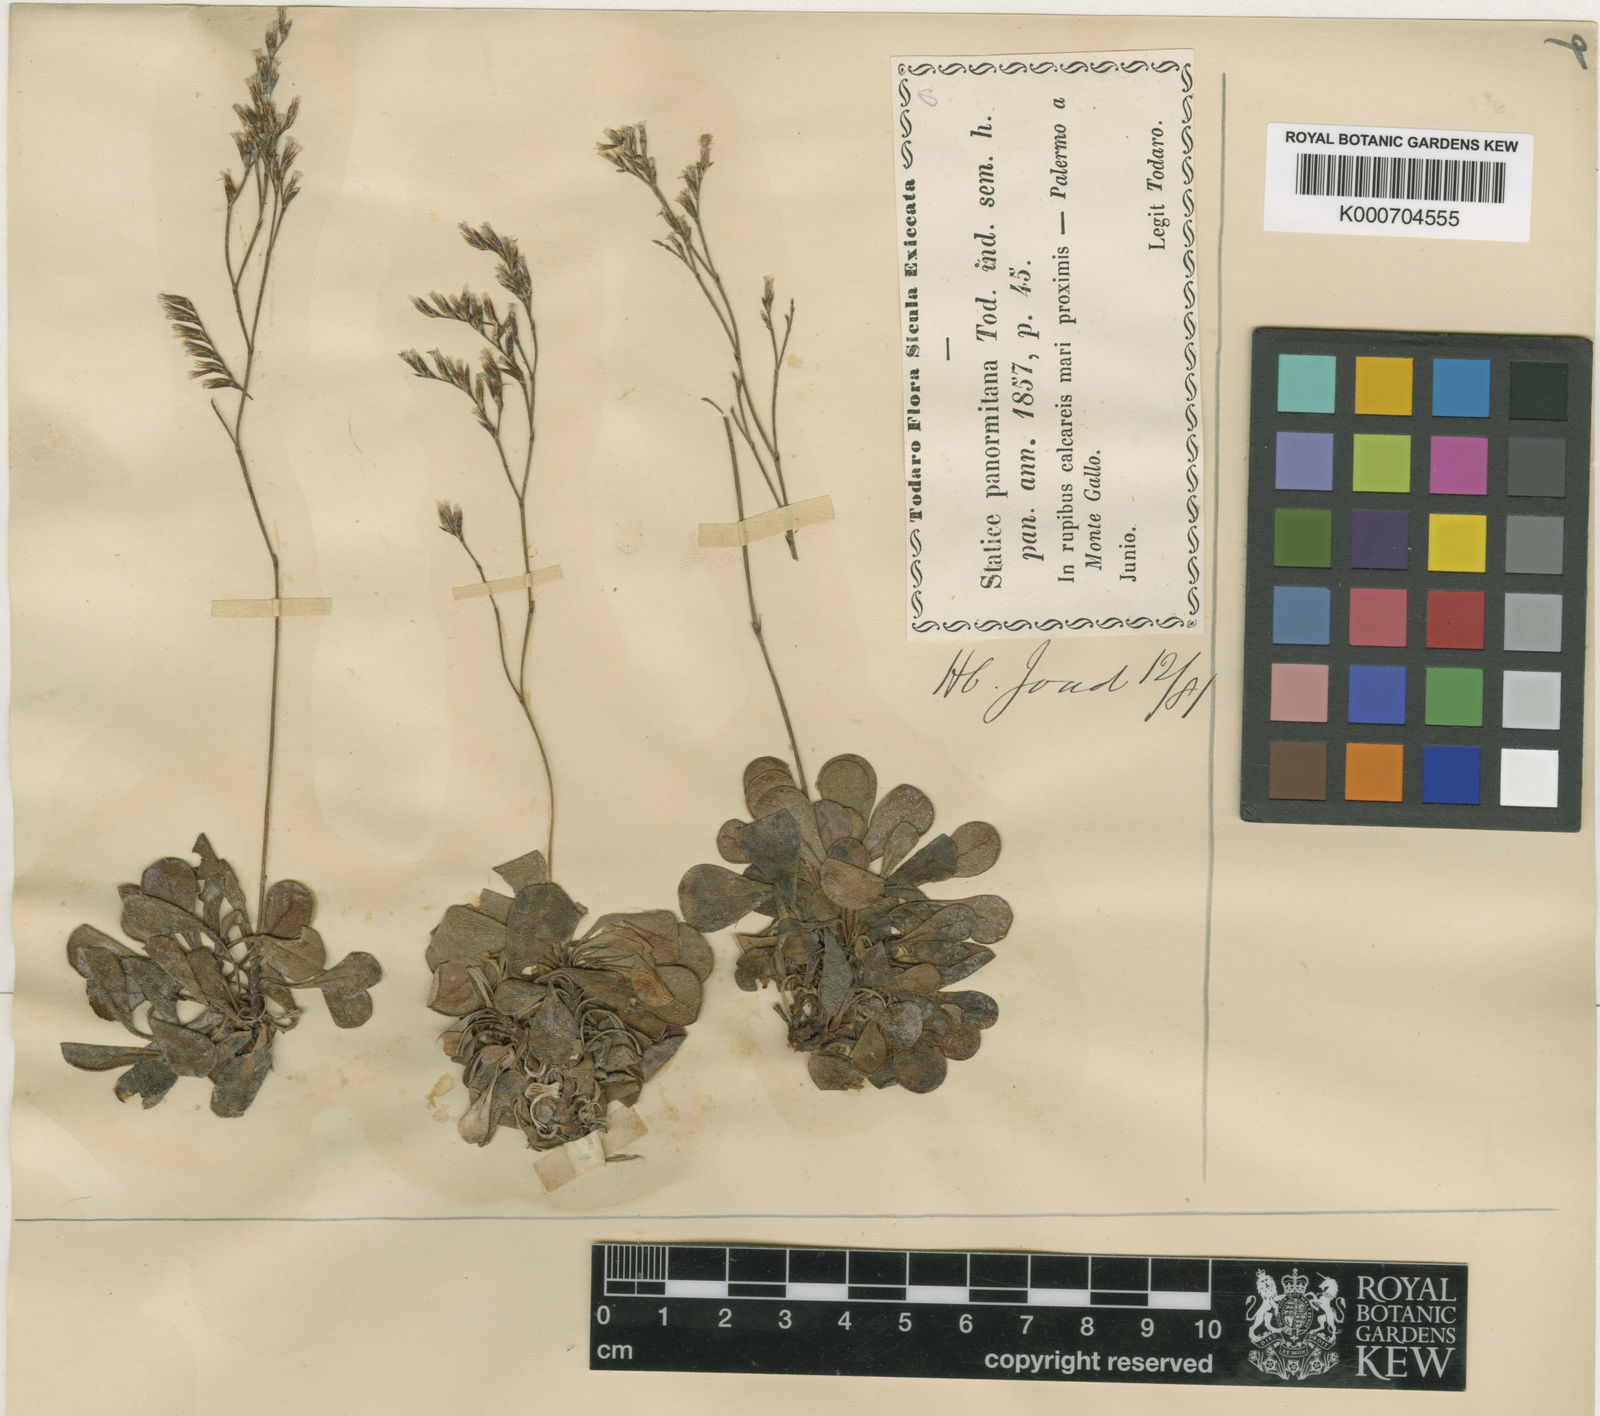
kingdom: Plantae
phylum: Tracheophyta
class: Magnoliopsida
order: Caryophyllales
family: Plumbaginaceae
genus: Limonium
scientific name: Limonium panormitanum
